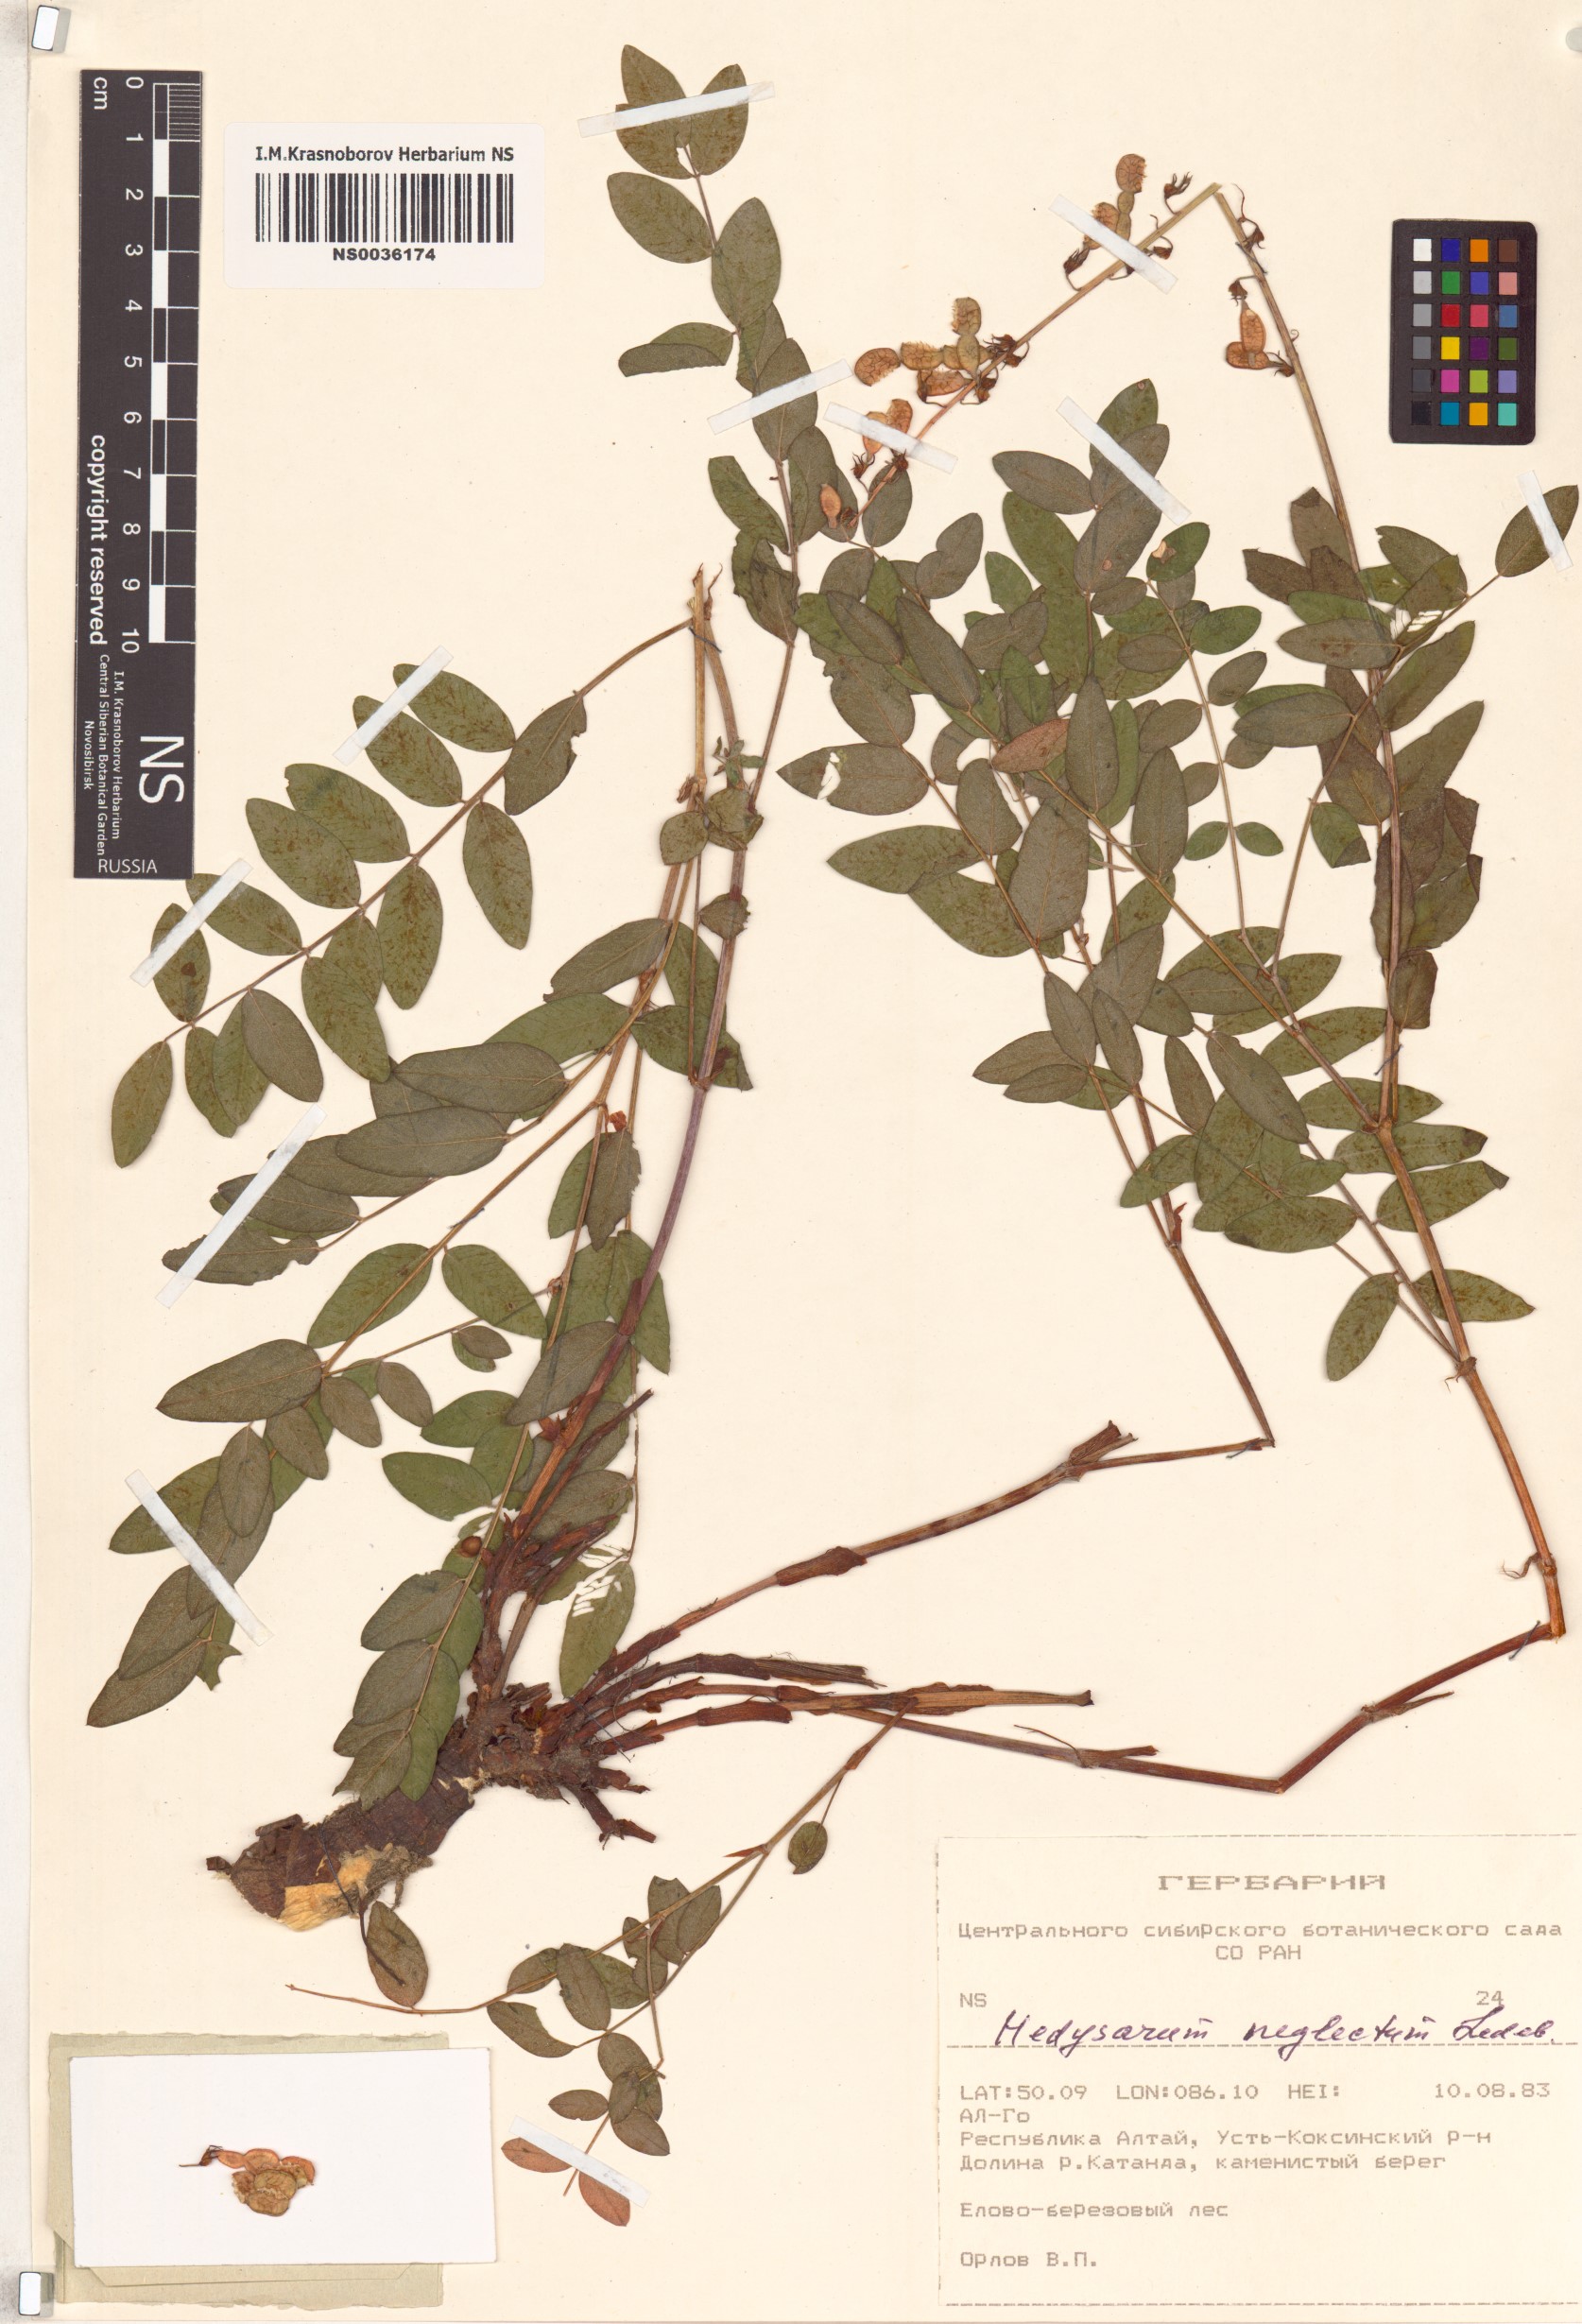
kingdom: Plantae
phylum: Tracheophyta
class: Magnoliopsida
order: Fabales
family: Fabaceae
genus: Hedysarum
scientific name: Hedysarum neglectum
